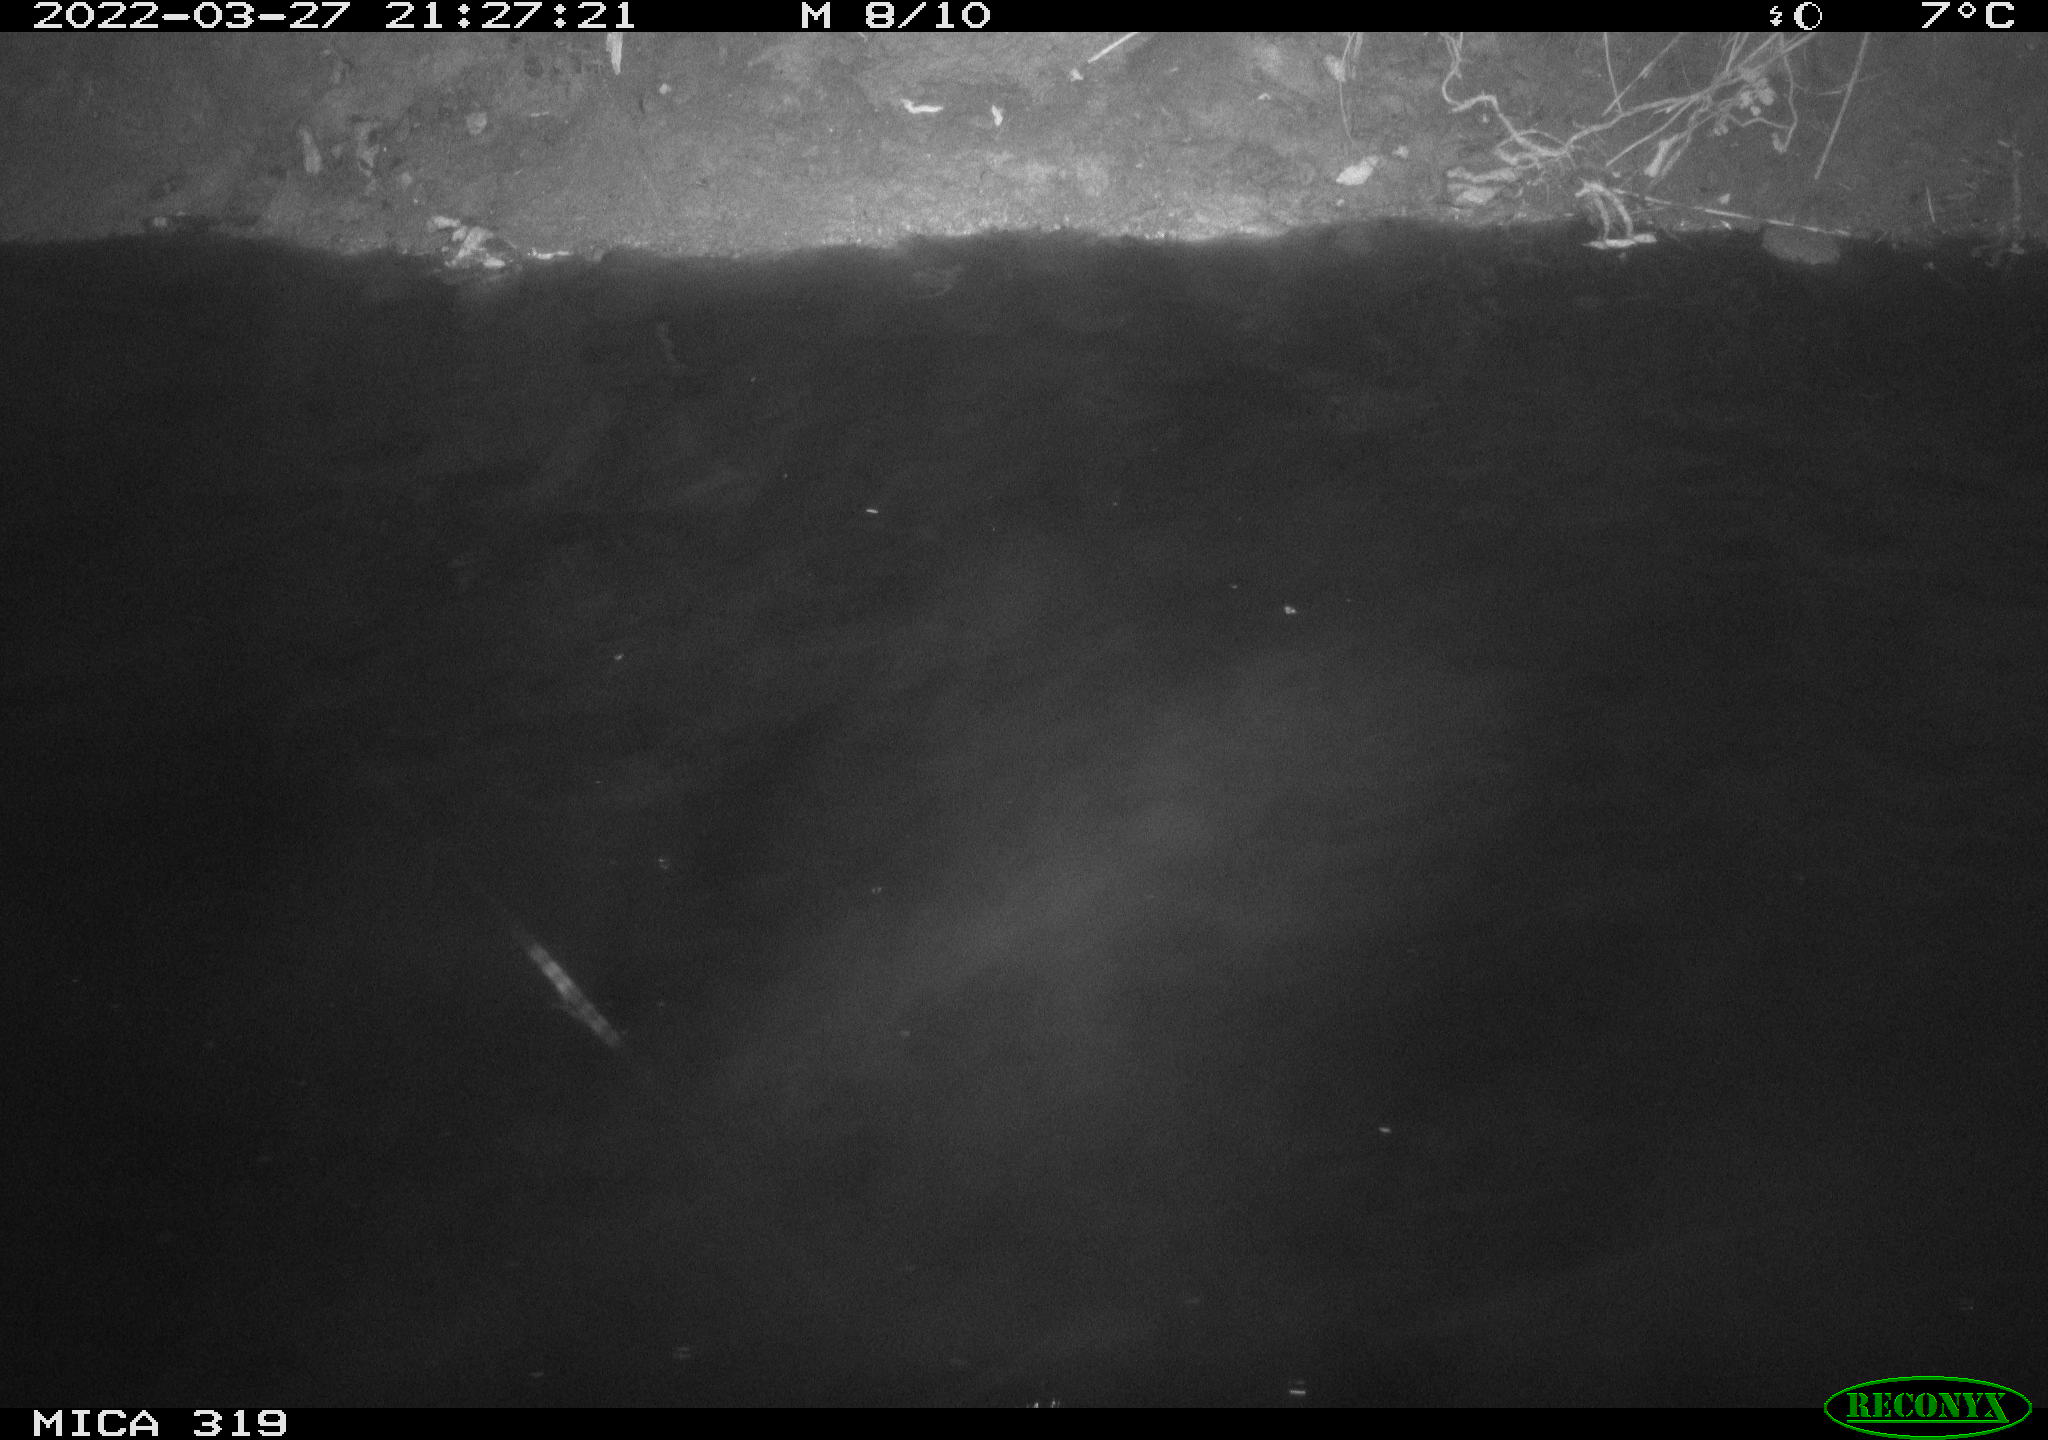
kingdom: Animalia
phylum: Chordata
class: Aves
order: Anseriformes
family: Anatidae
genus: Anas
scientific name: Anas platyrhynchos
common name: Mallard
